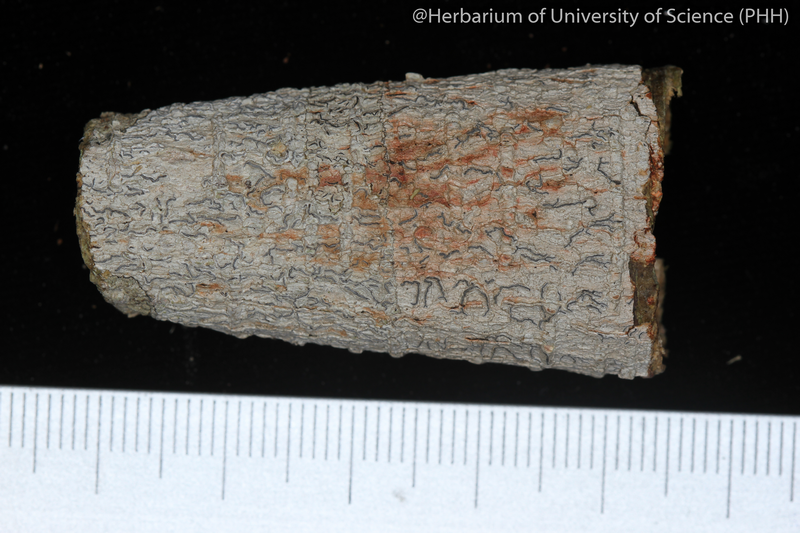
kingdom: Fungi
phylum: Ascomycota
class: Lecanoromycetes
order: Ostropales
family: Graphidaceae
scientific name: Graphidaceae
